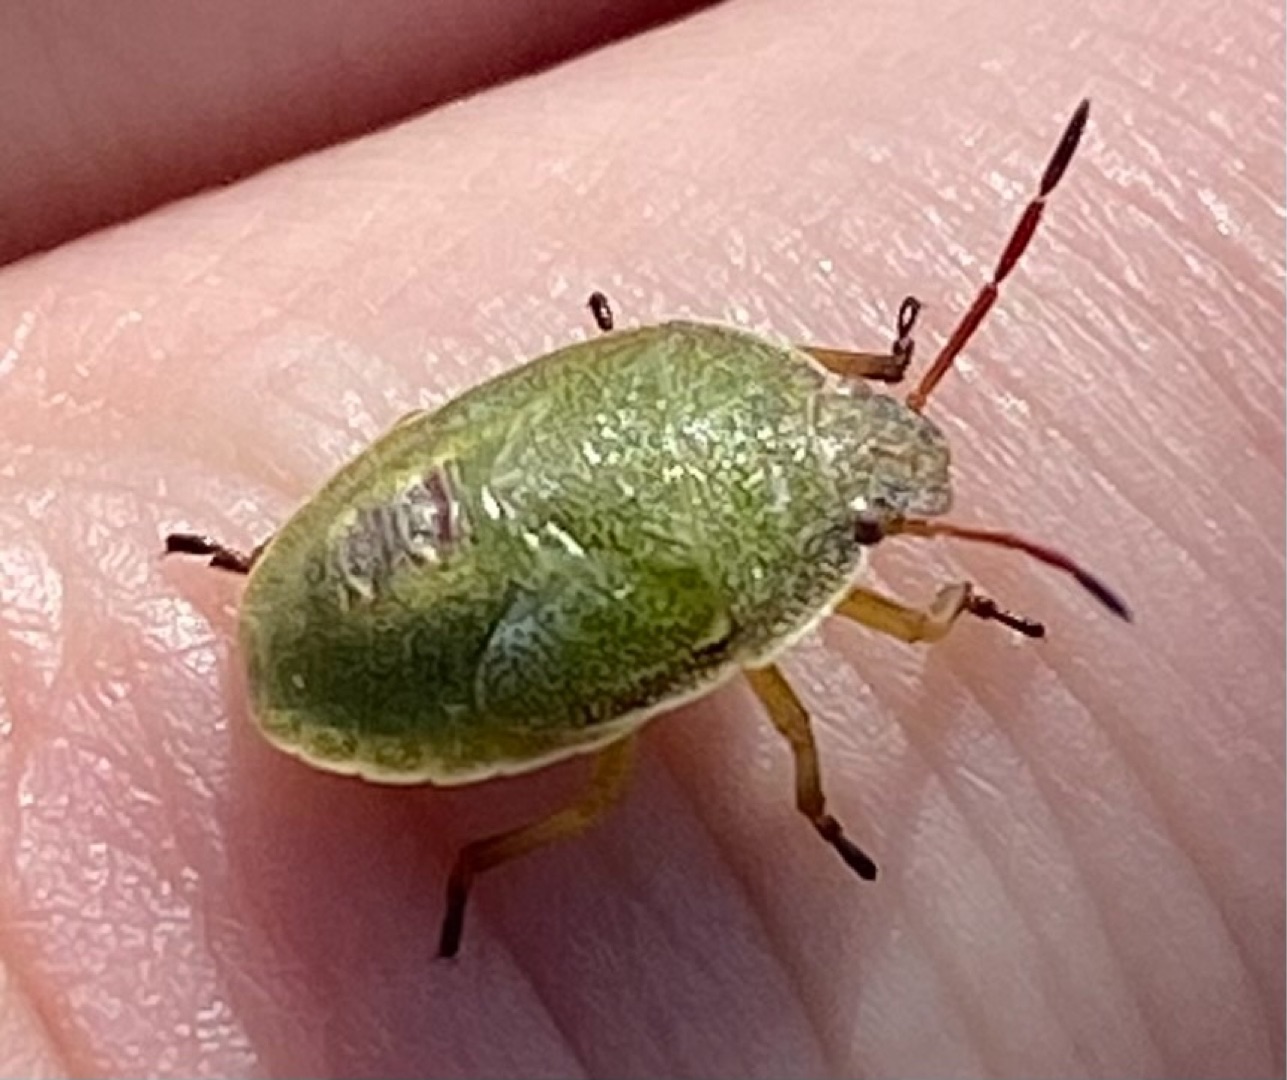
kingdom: Animalia
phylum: Arthropoda
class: Insecta
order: Hemiptera
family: Pentatomidae
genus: Piezodorus
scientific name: Piezodorus lituratus
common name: Gyvelbredtæge
